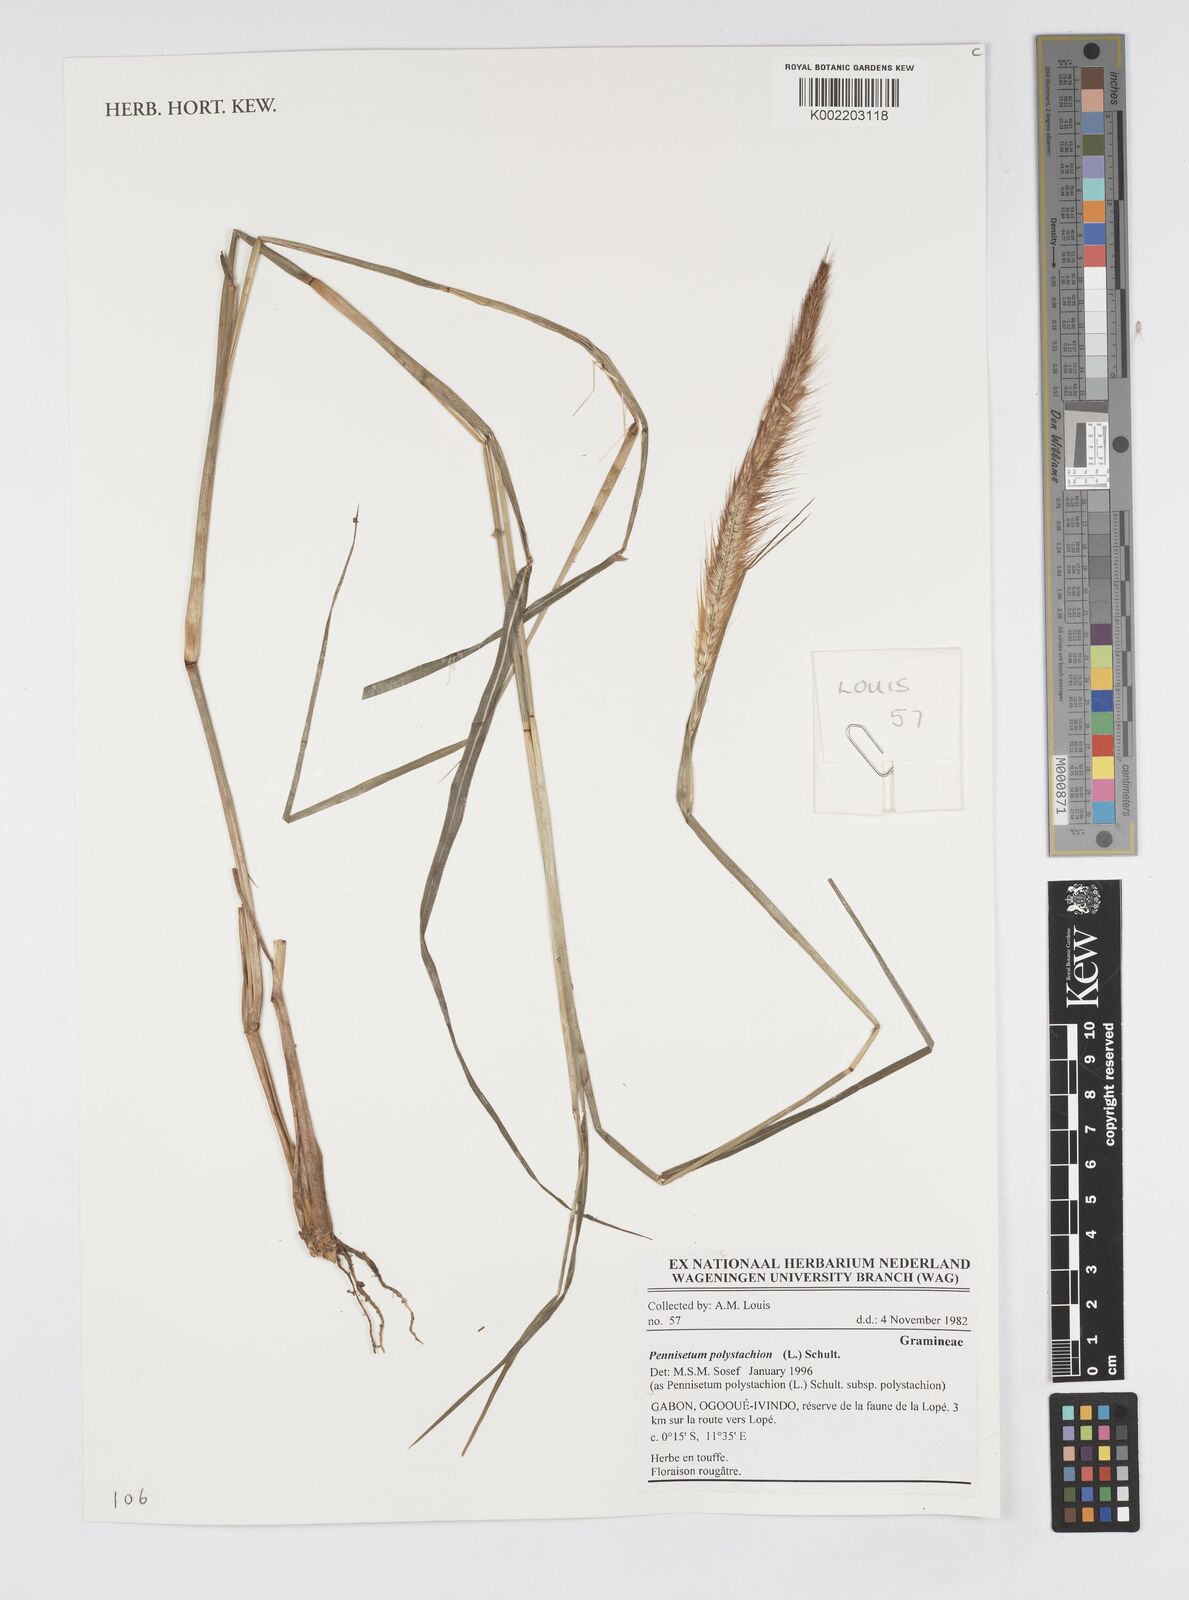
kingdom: Plantae
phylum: Tracheophyta
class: Liliopsida
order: Poales
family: Poaceae
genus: Setaria
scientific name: Setaria parviflora
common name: Knotroot bristle-grass
